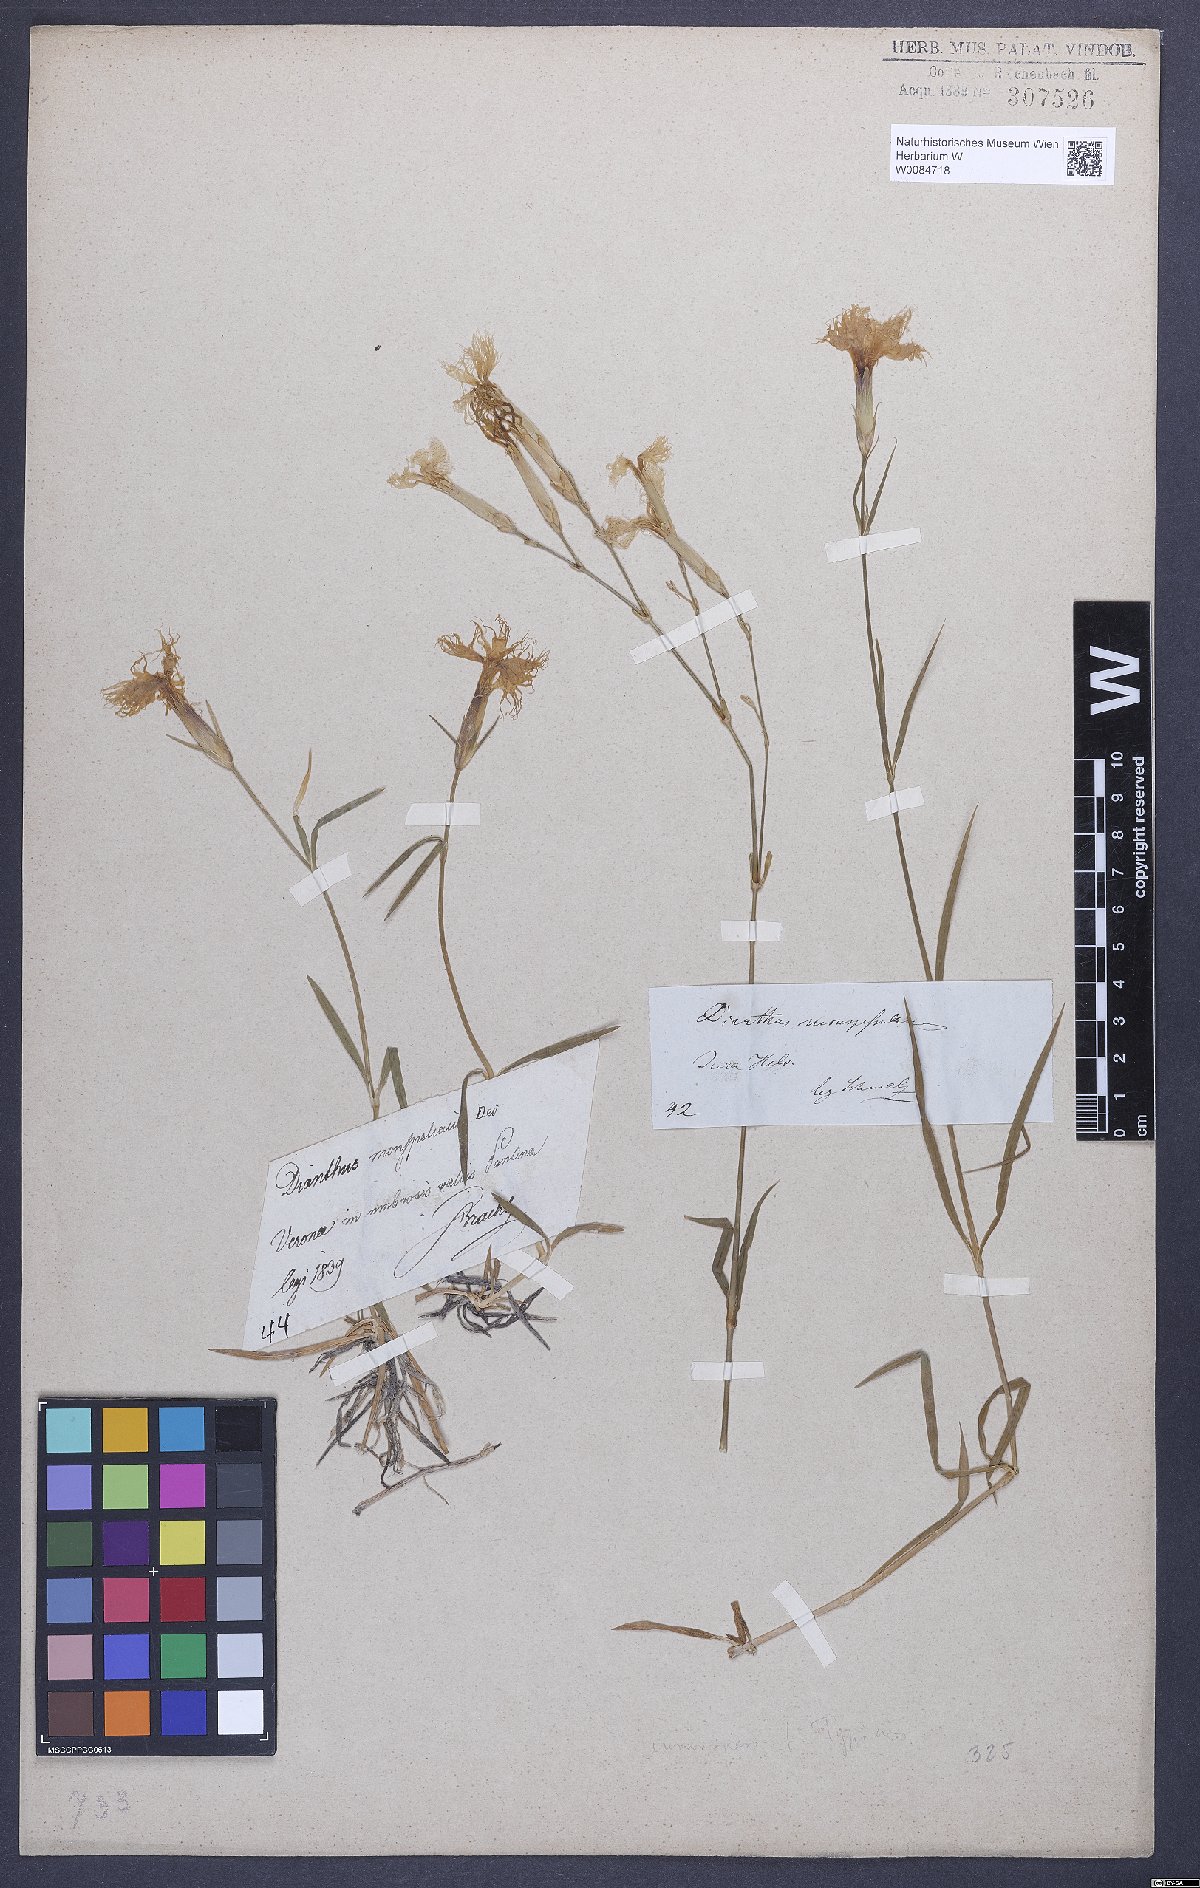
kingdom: Plantae
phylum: Tracheophyta
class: Magnoliopsida
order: Caryophyllales
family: Caryophyllaceae
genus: Dianthus
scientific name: Dianthus hyssopifolius
